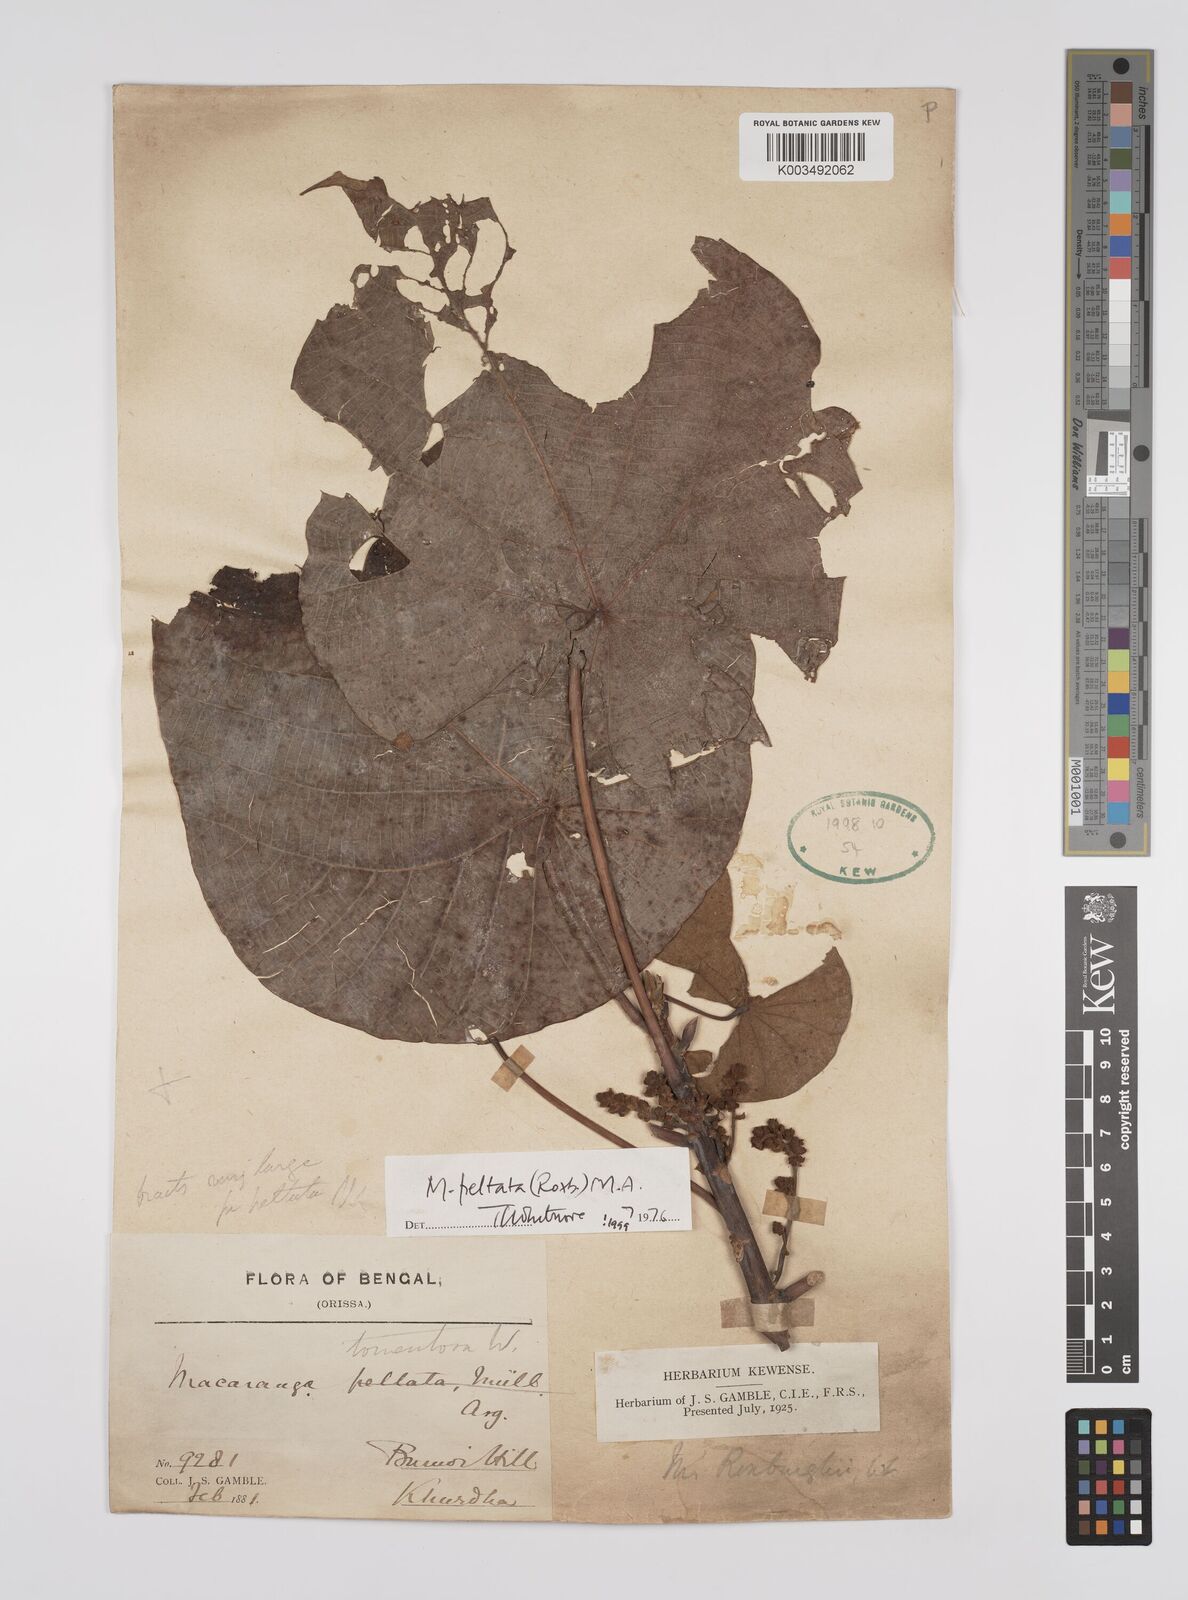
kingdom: Plantae
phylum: Tracheophyta
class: Magnoliopsida
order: Malpighiales
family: Euphorbiaceae
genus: Macaranga
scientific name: Macaranga peltata
